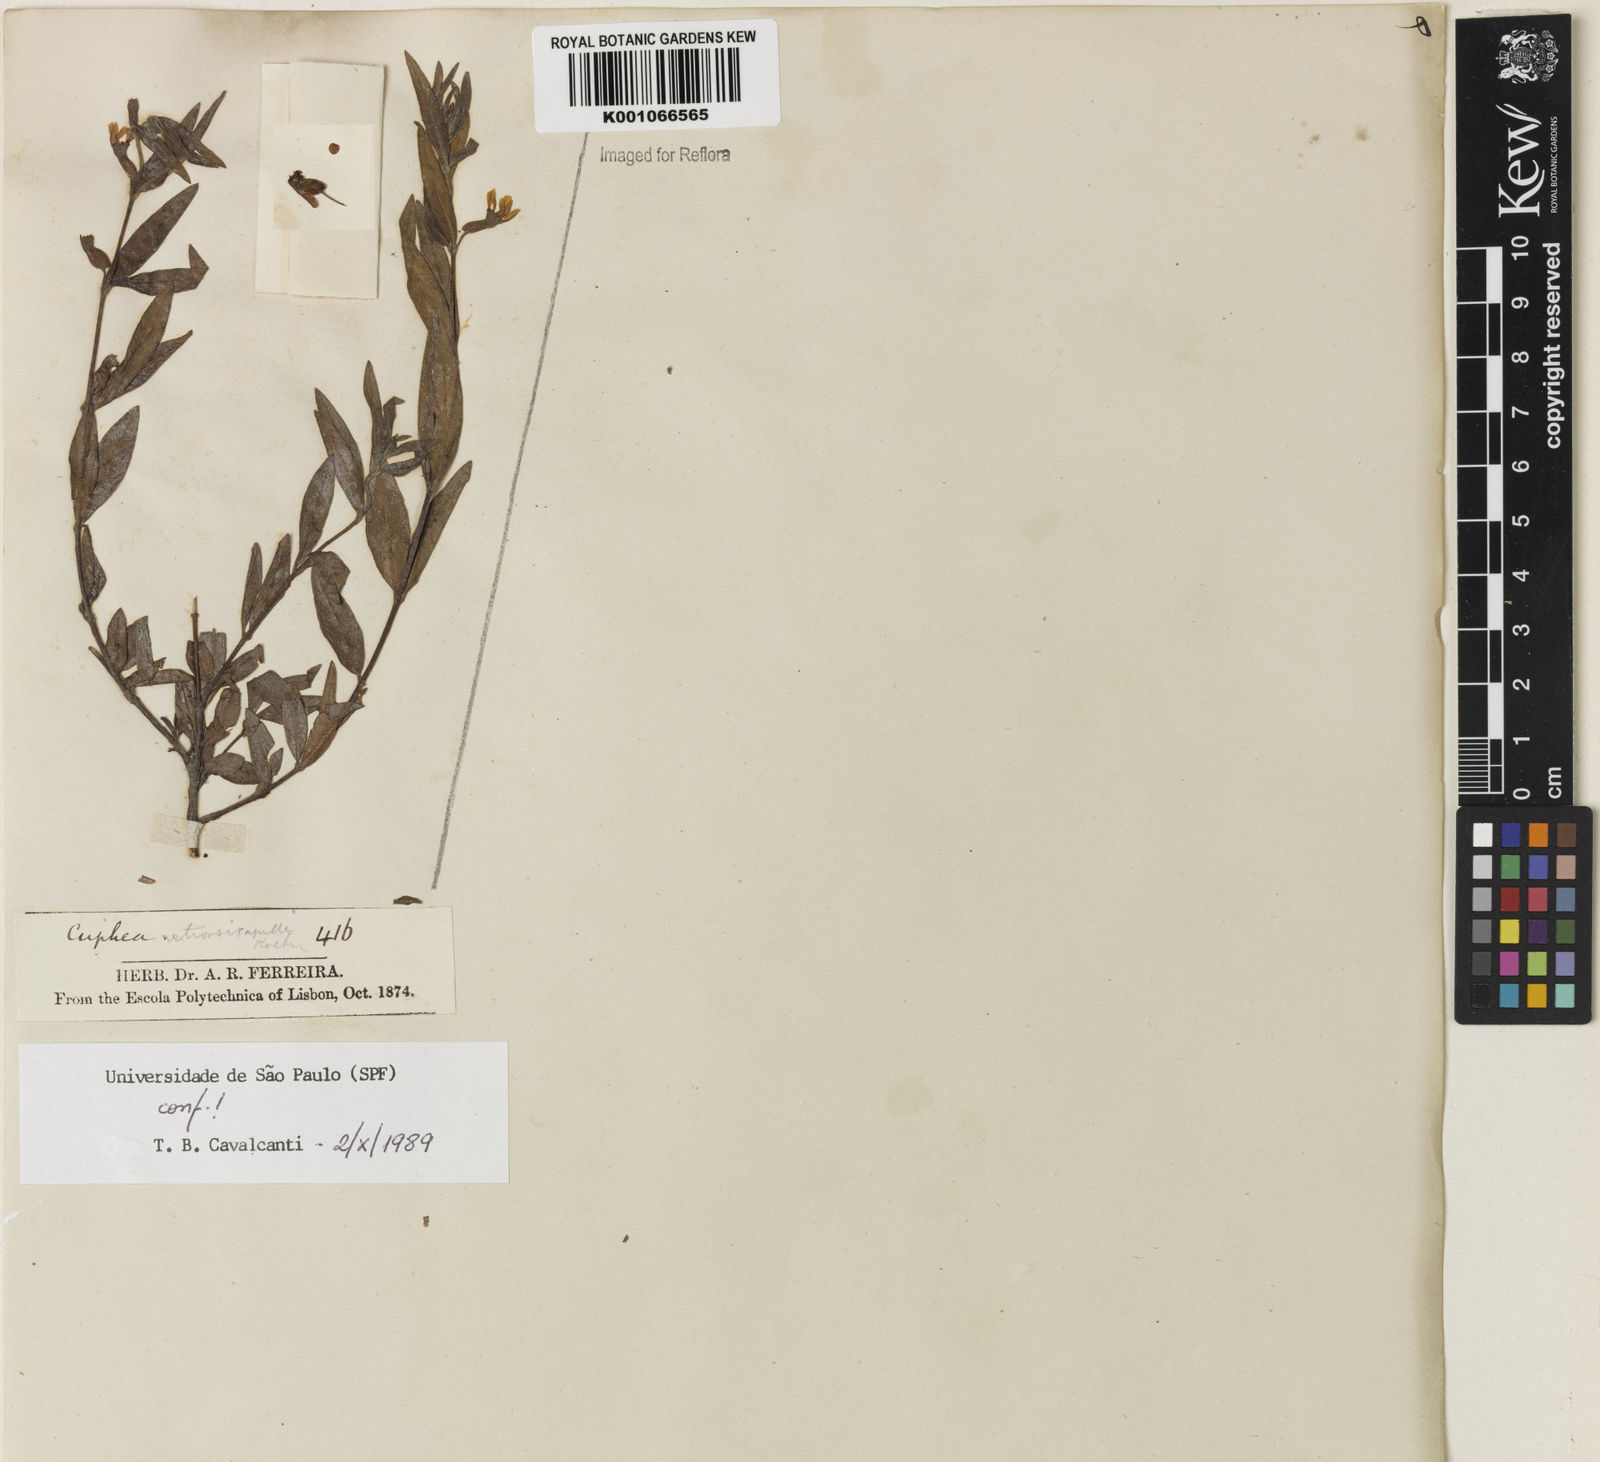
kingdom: Plantae
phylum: Tracheophyta
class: Magnoliopsida
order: Myrtales
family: Lythraceae
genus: Cuphea
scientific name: Cuphea retrorsicapilla
